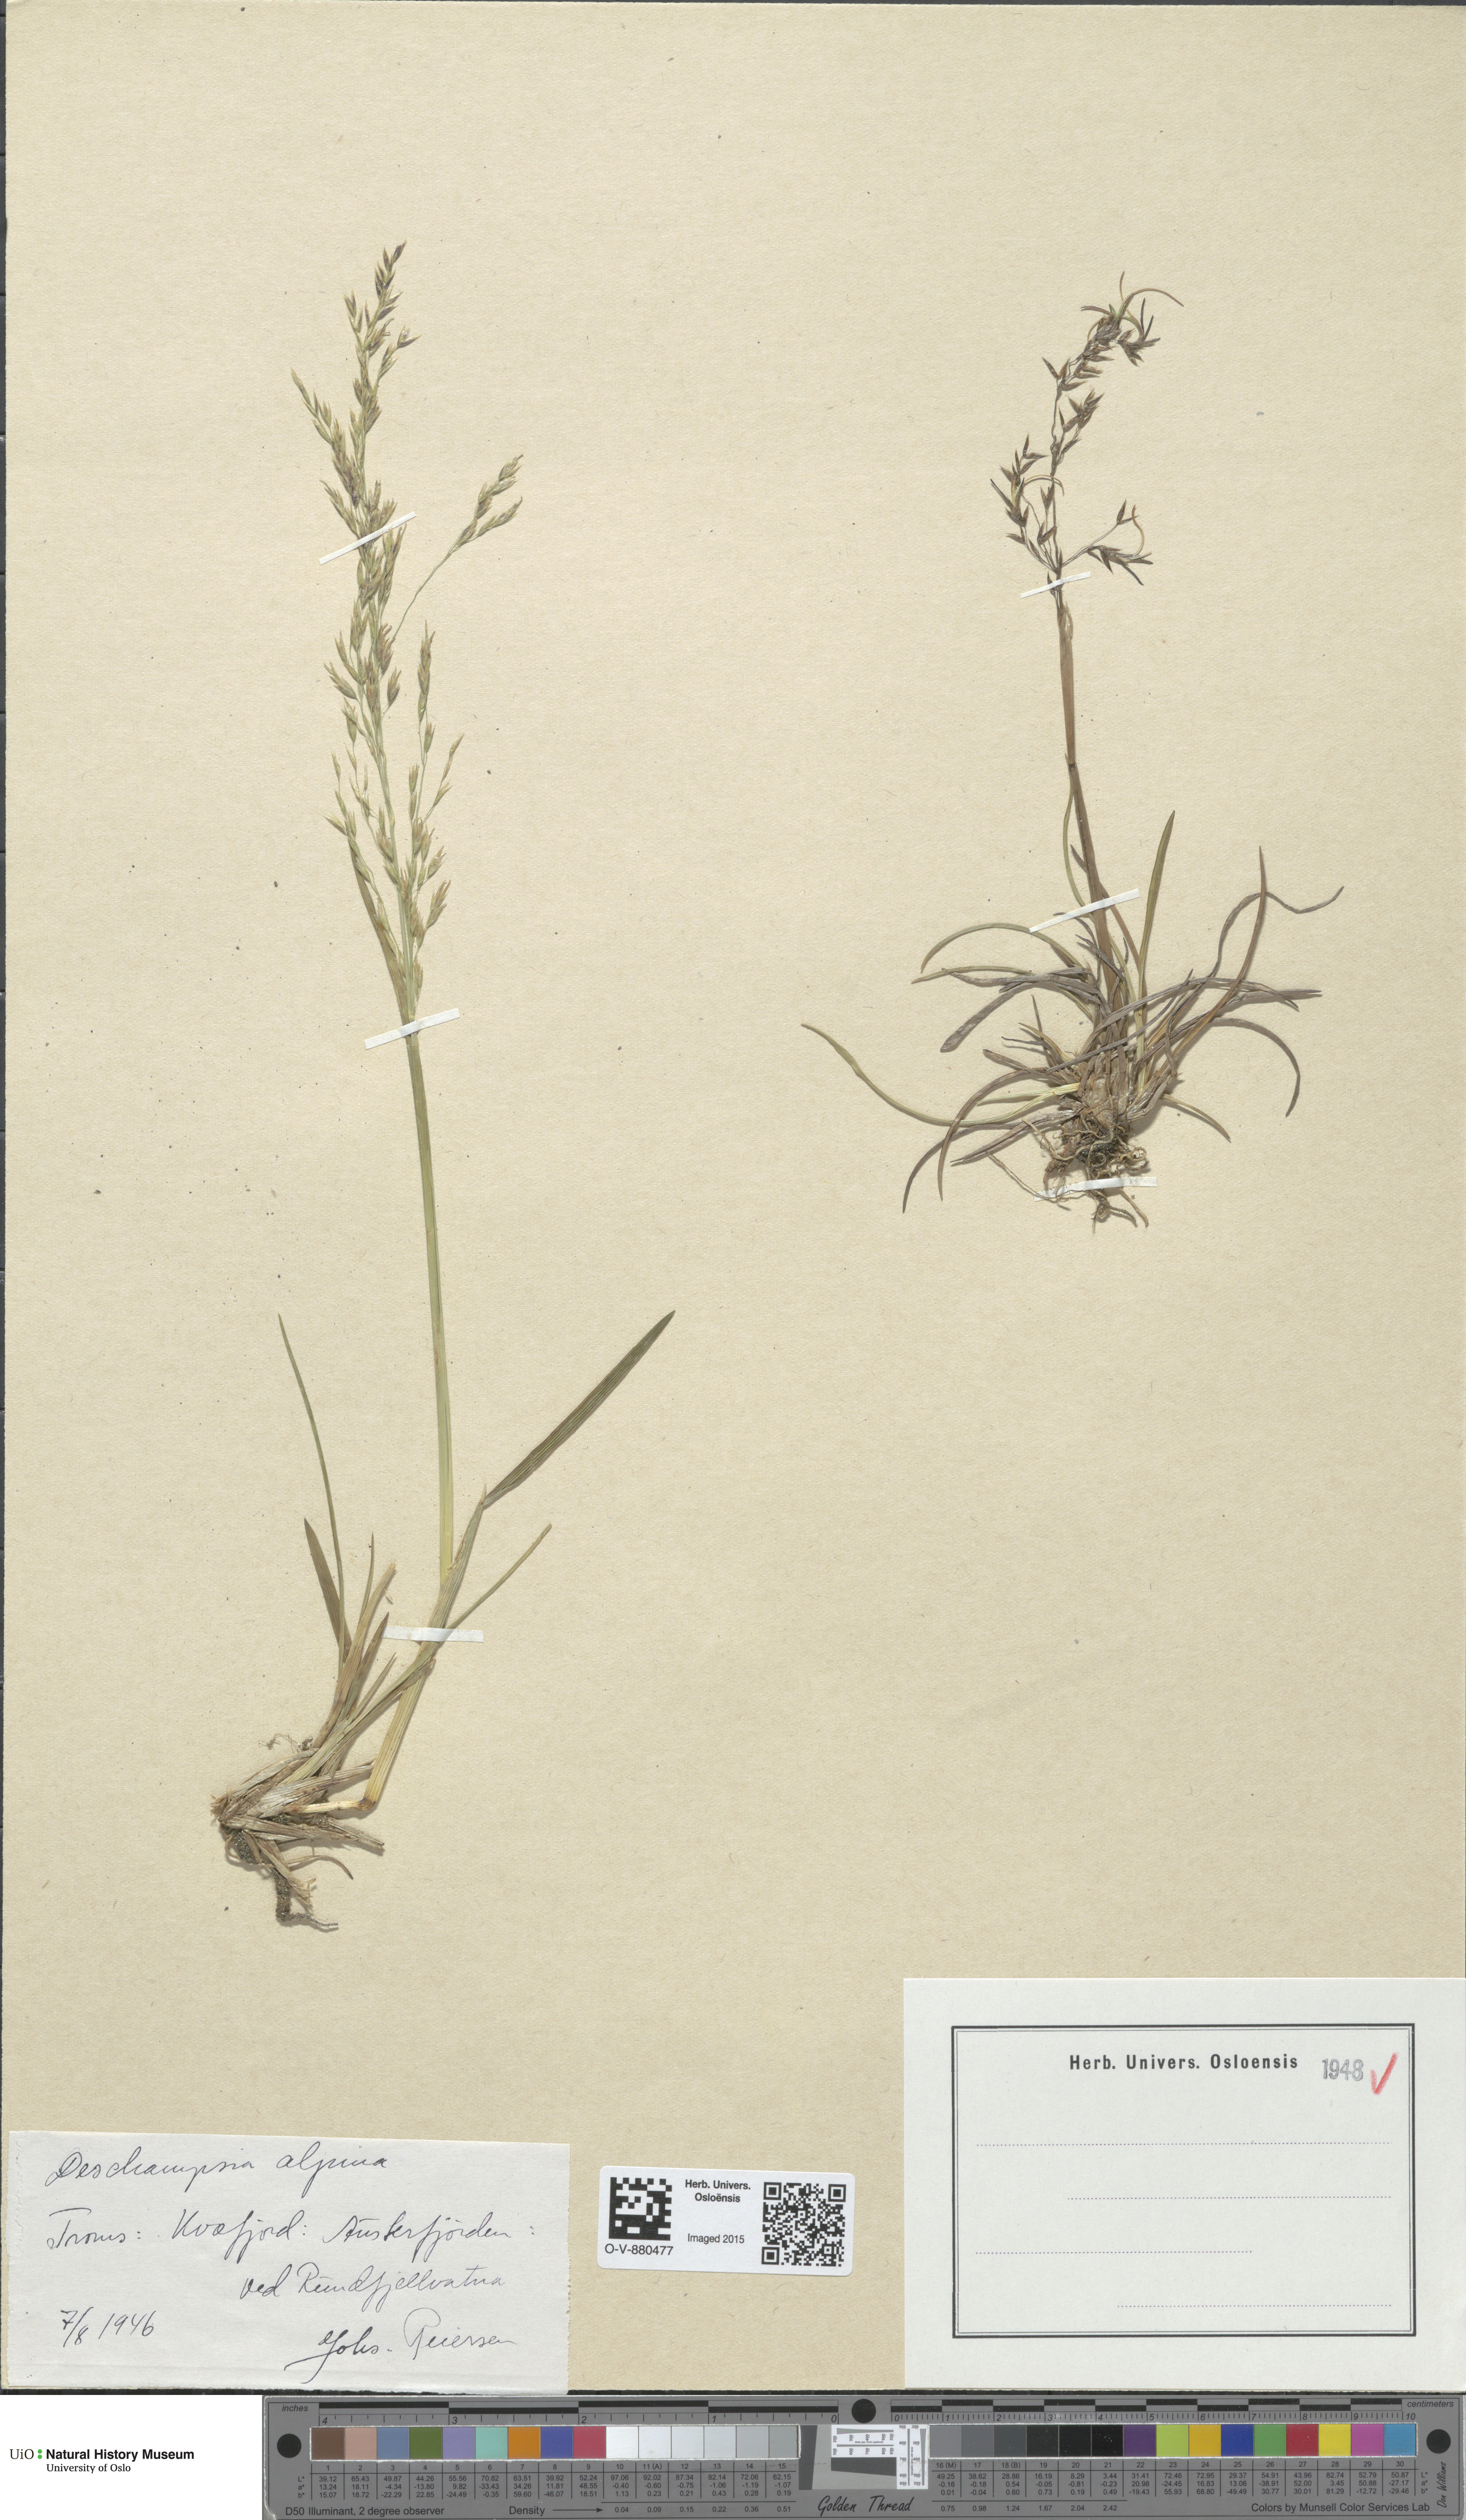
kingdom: Plantae
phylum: Tracheophyta
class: Liliopsida
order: Poales
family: Poaceae
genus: Deschampsia
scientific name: Deschampsia cespitosa
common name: Tufted hair-grass
